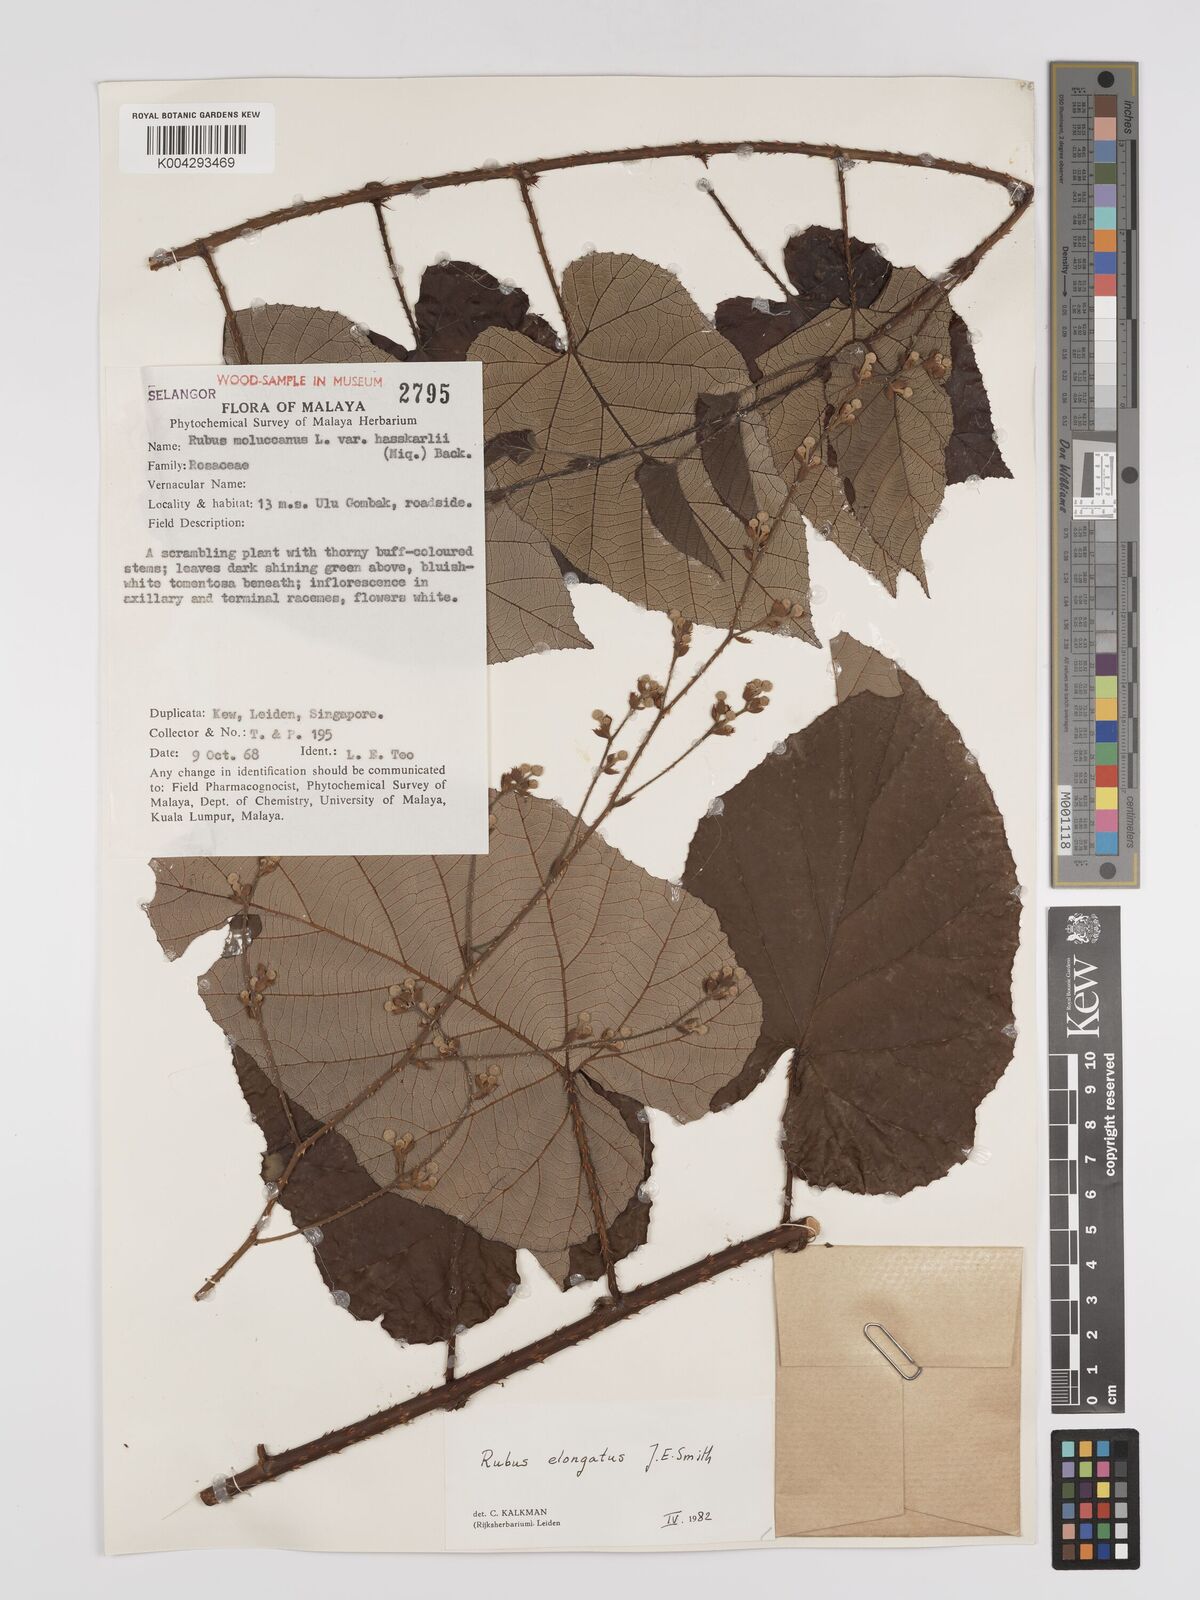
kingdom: Plantae
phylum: Tracheophyta
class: Magnoliopsida
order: Rosales
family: Rosaceae
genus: Rubus
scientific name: Rubus
